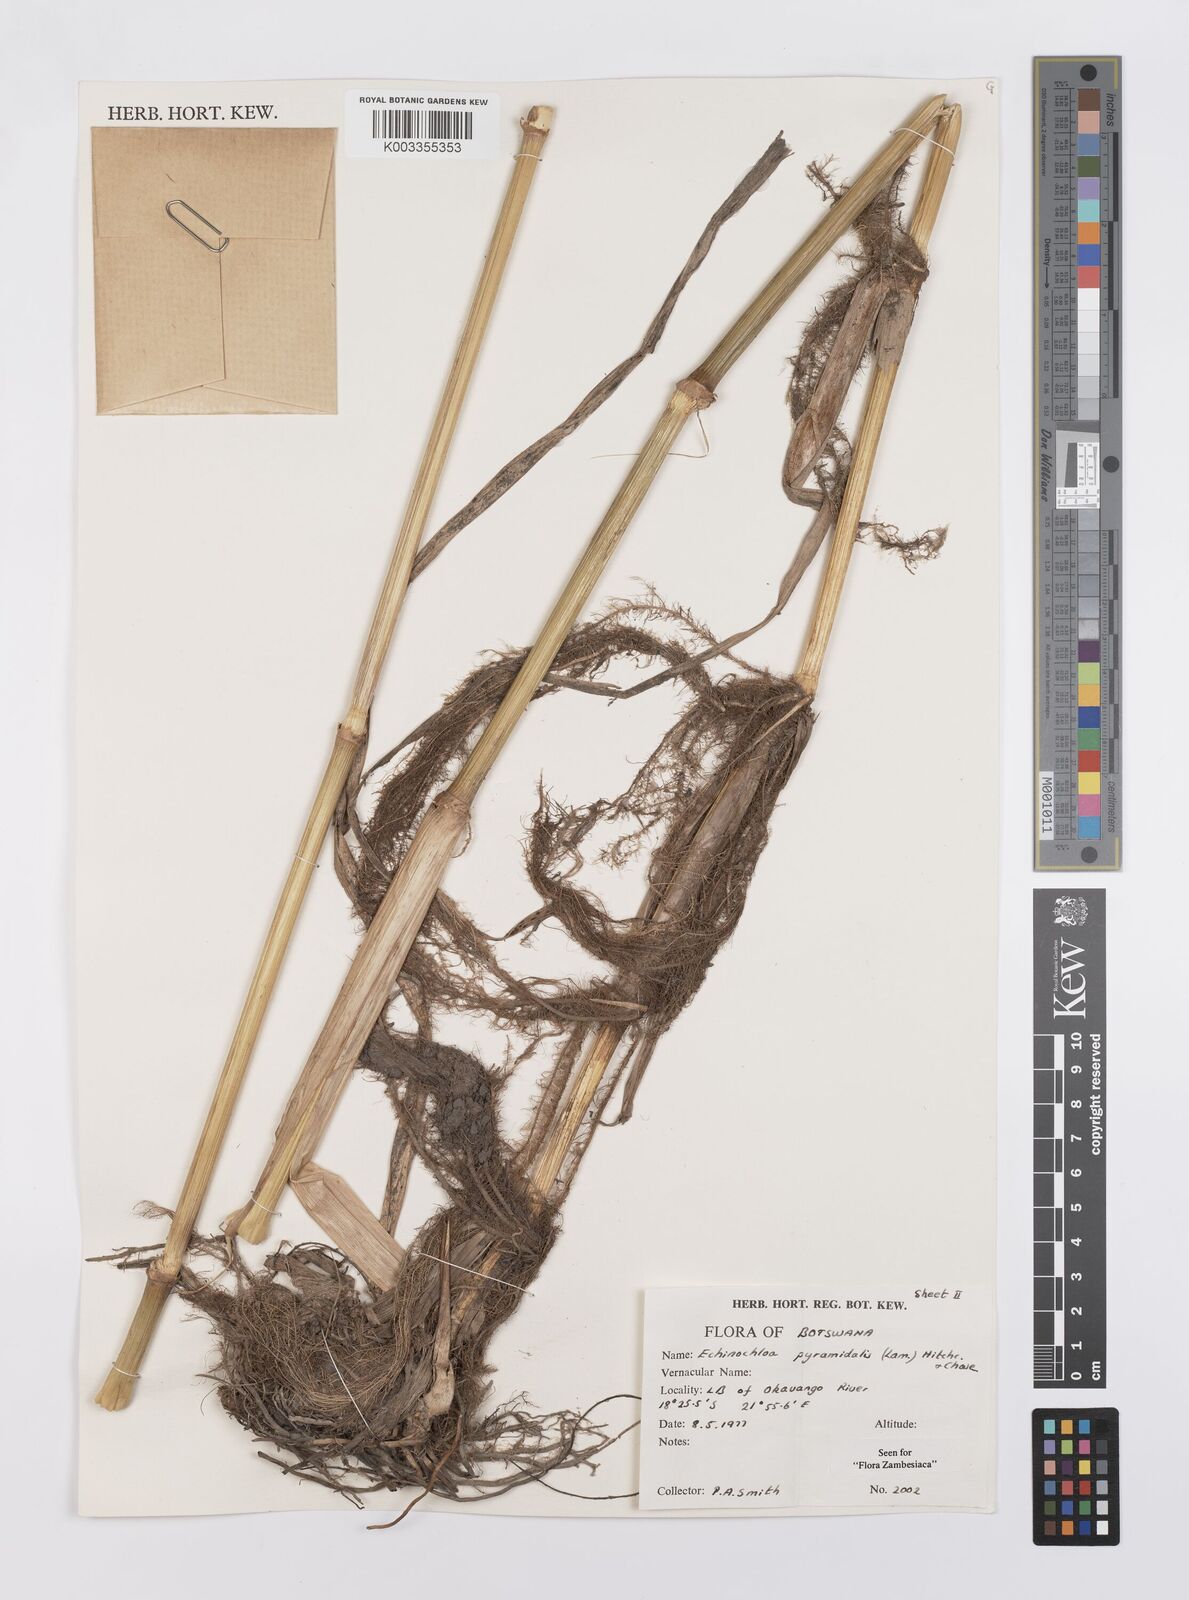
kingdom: Plantae
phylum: Tracheophyta
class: Liliopsida
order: Poales
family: Poaceae
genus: Echinochloa
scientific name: Echinochloa pyramidalis
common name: Antelope grass
